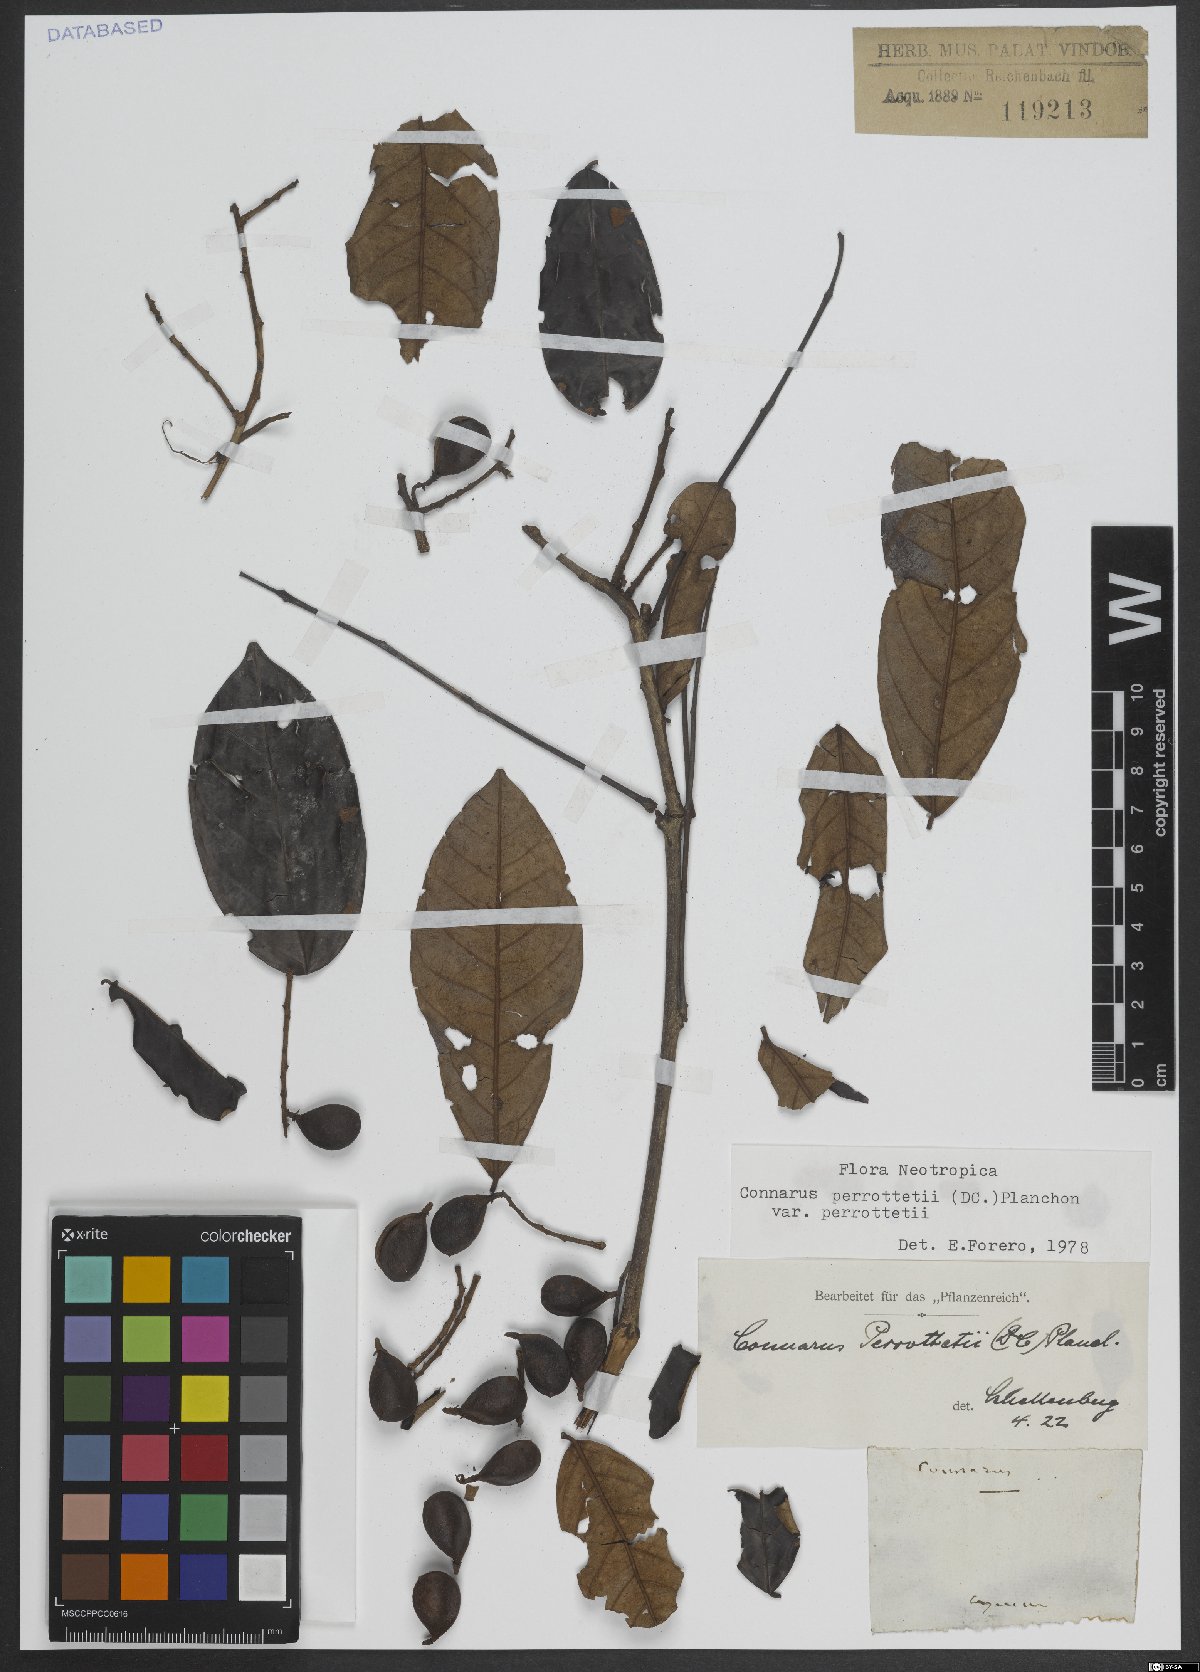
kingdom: Plantae
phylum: Tracheophyta
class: Magnoliopsida
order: Oxalidales
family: Connaraceae
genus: Connarus
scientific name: Connarus perrottetii
